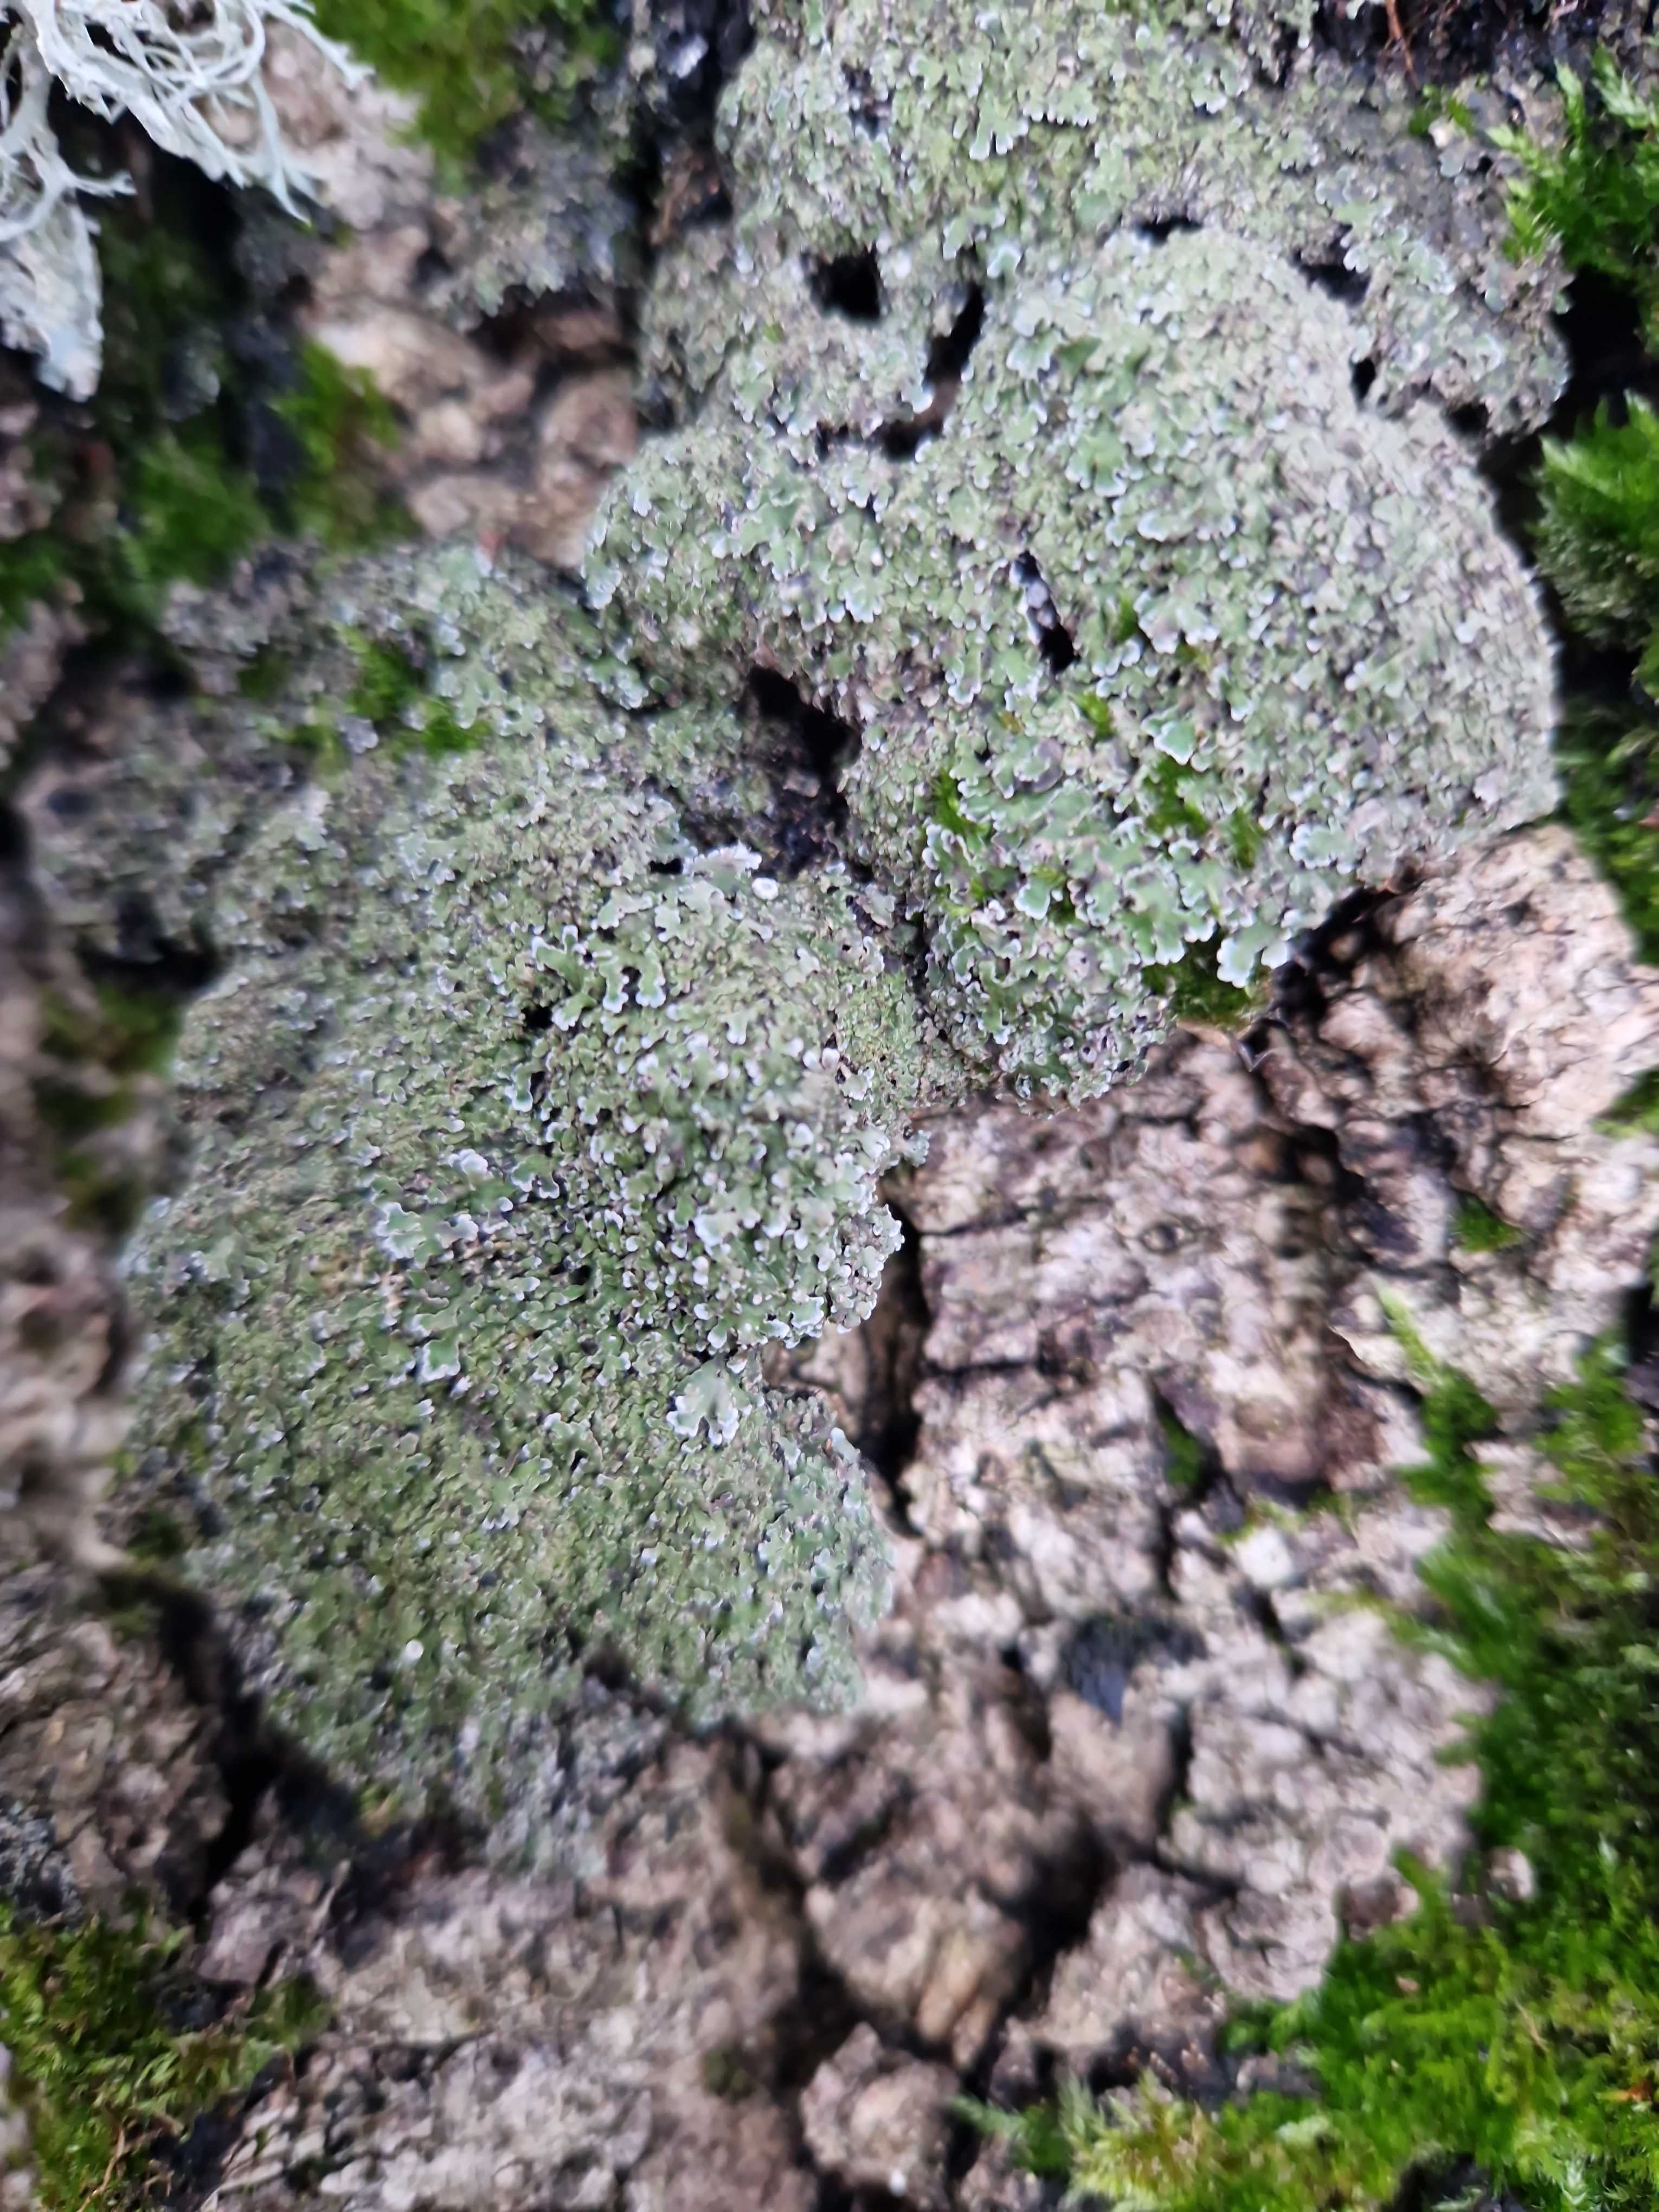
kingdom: Fungi
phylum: Ascomycota
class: Lecanoromycetes
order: Caliciales
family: Physciaceae
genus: Physconia
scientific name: Physconia
